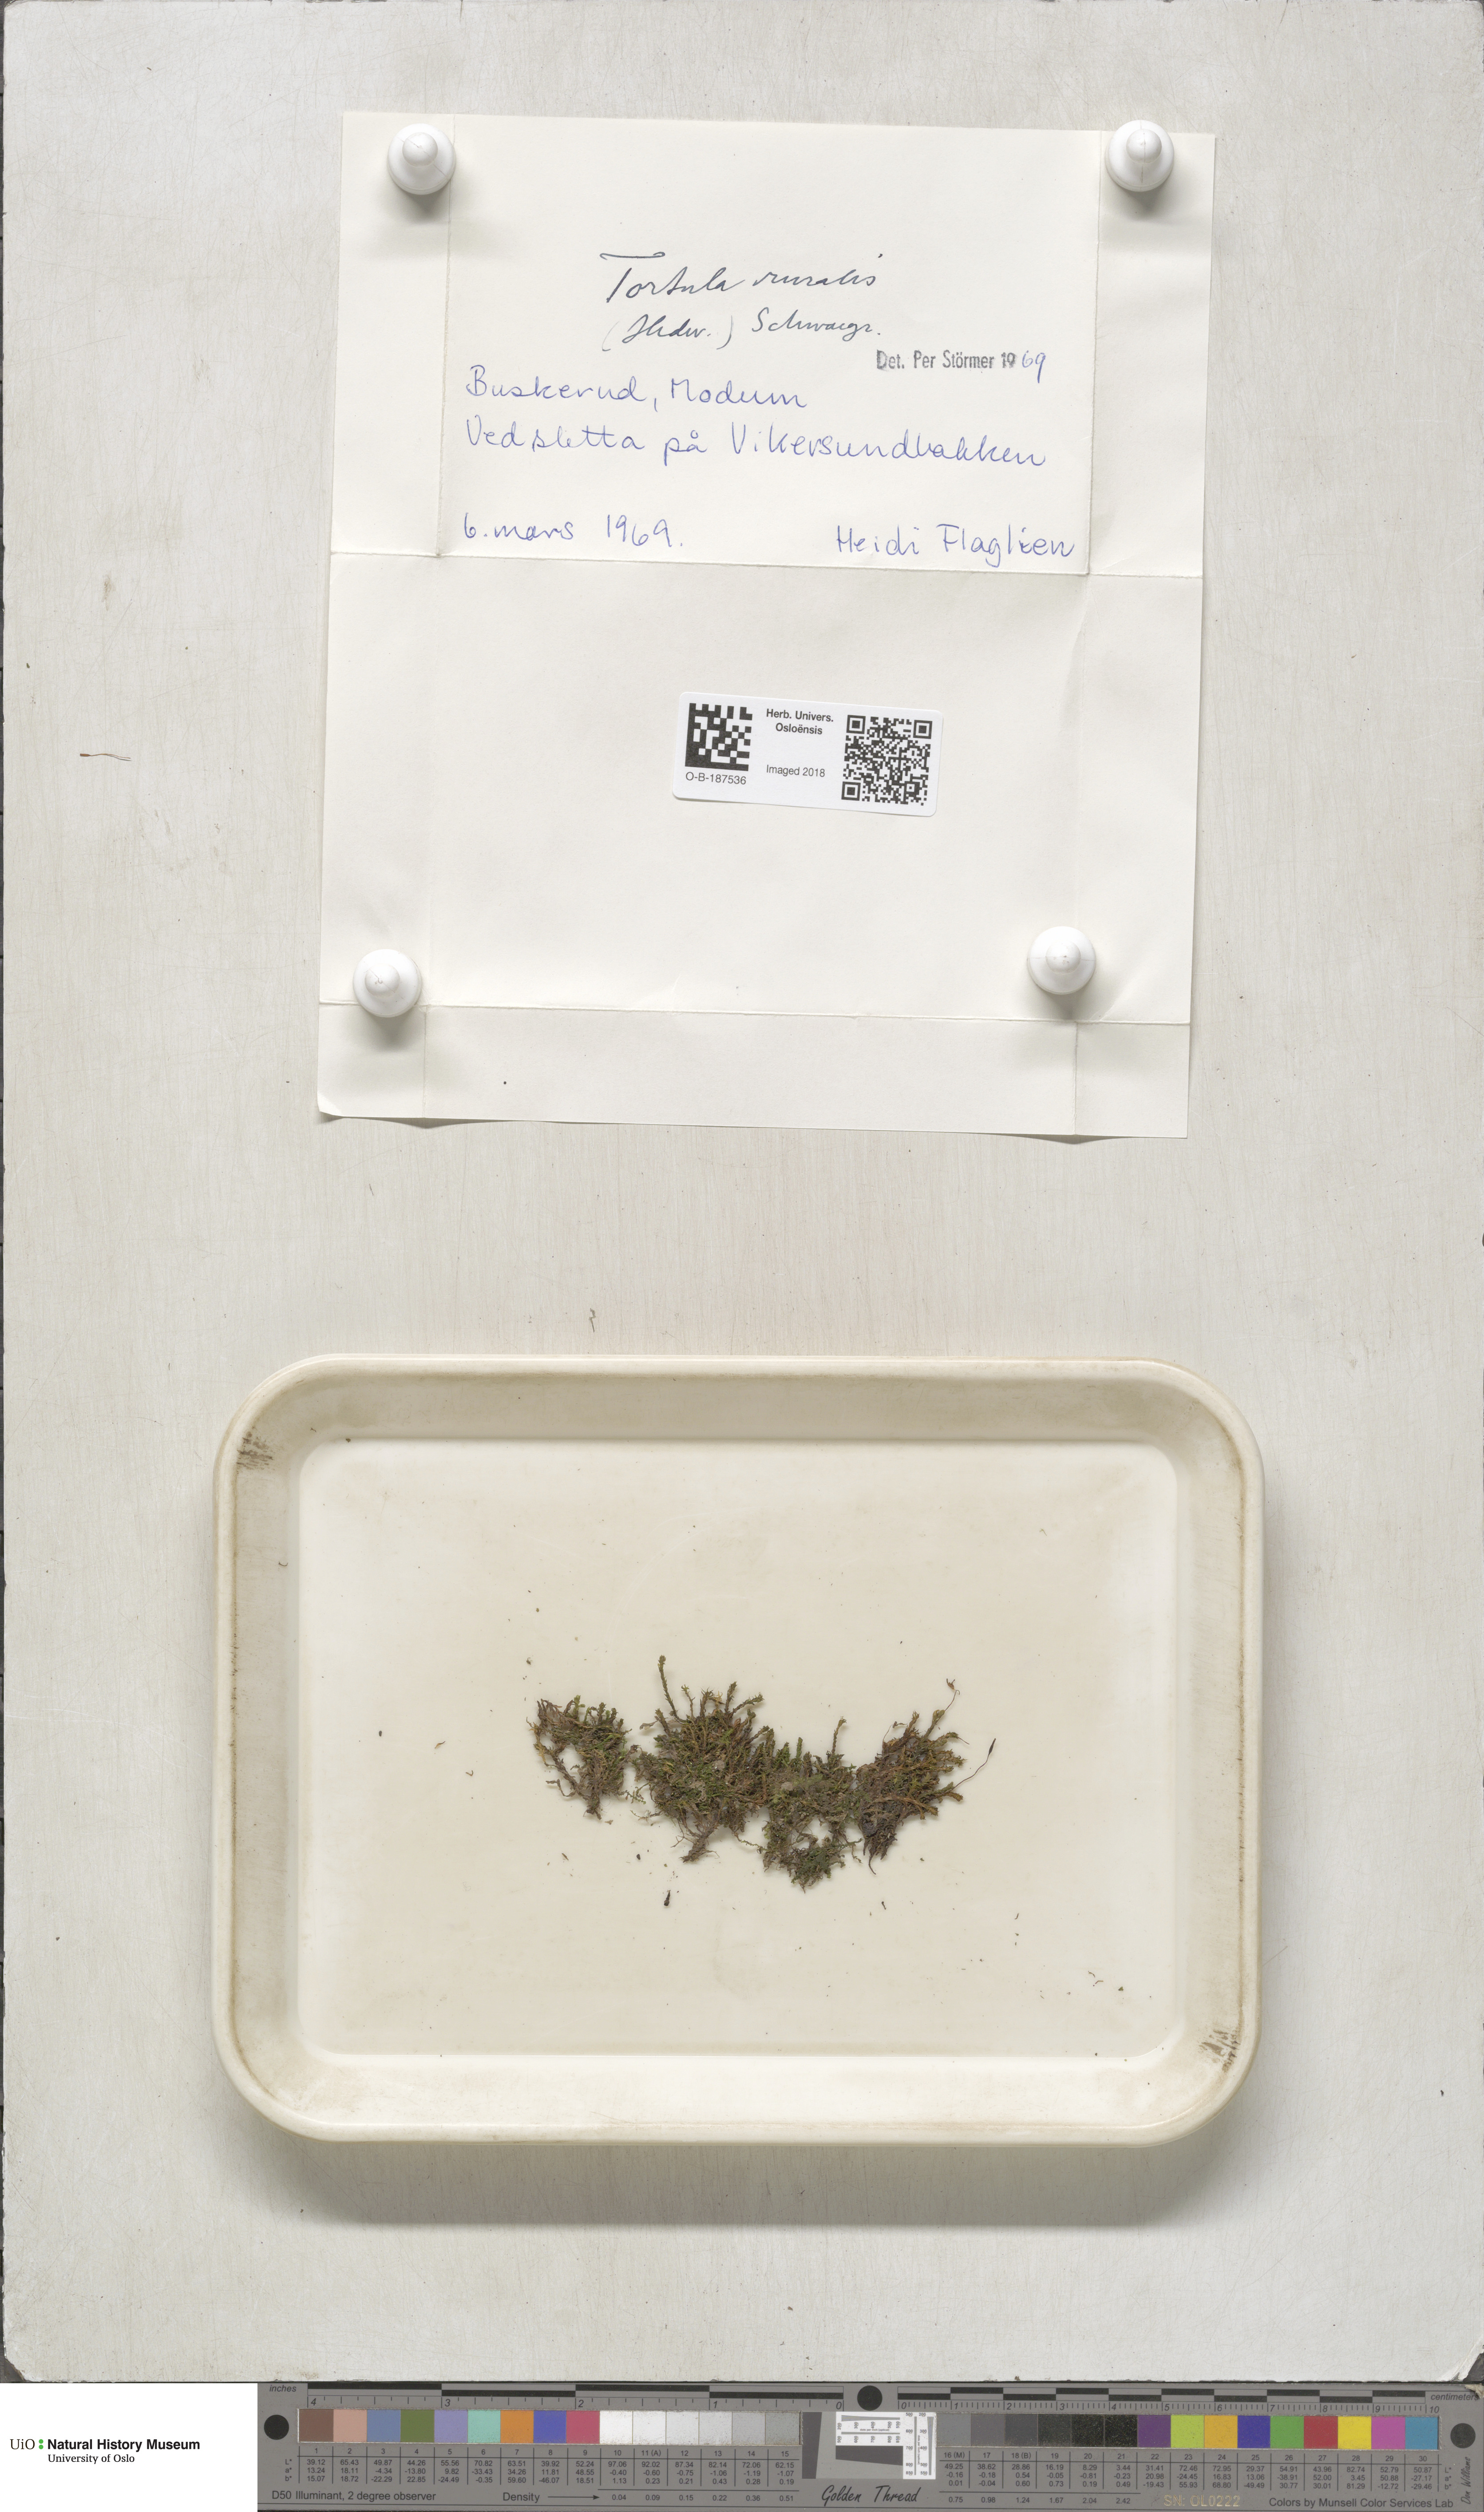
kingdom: Plantae
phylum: Bryophyta
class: Bryopsida
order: Pottiales
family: Pottiaceae
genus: Syntrichia
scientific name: Syntrichia ruralis
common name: Sidewalk screw moss
